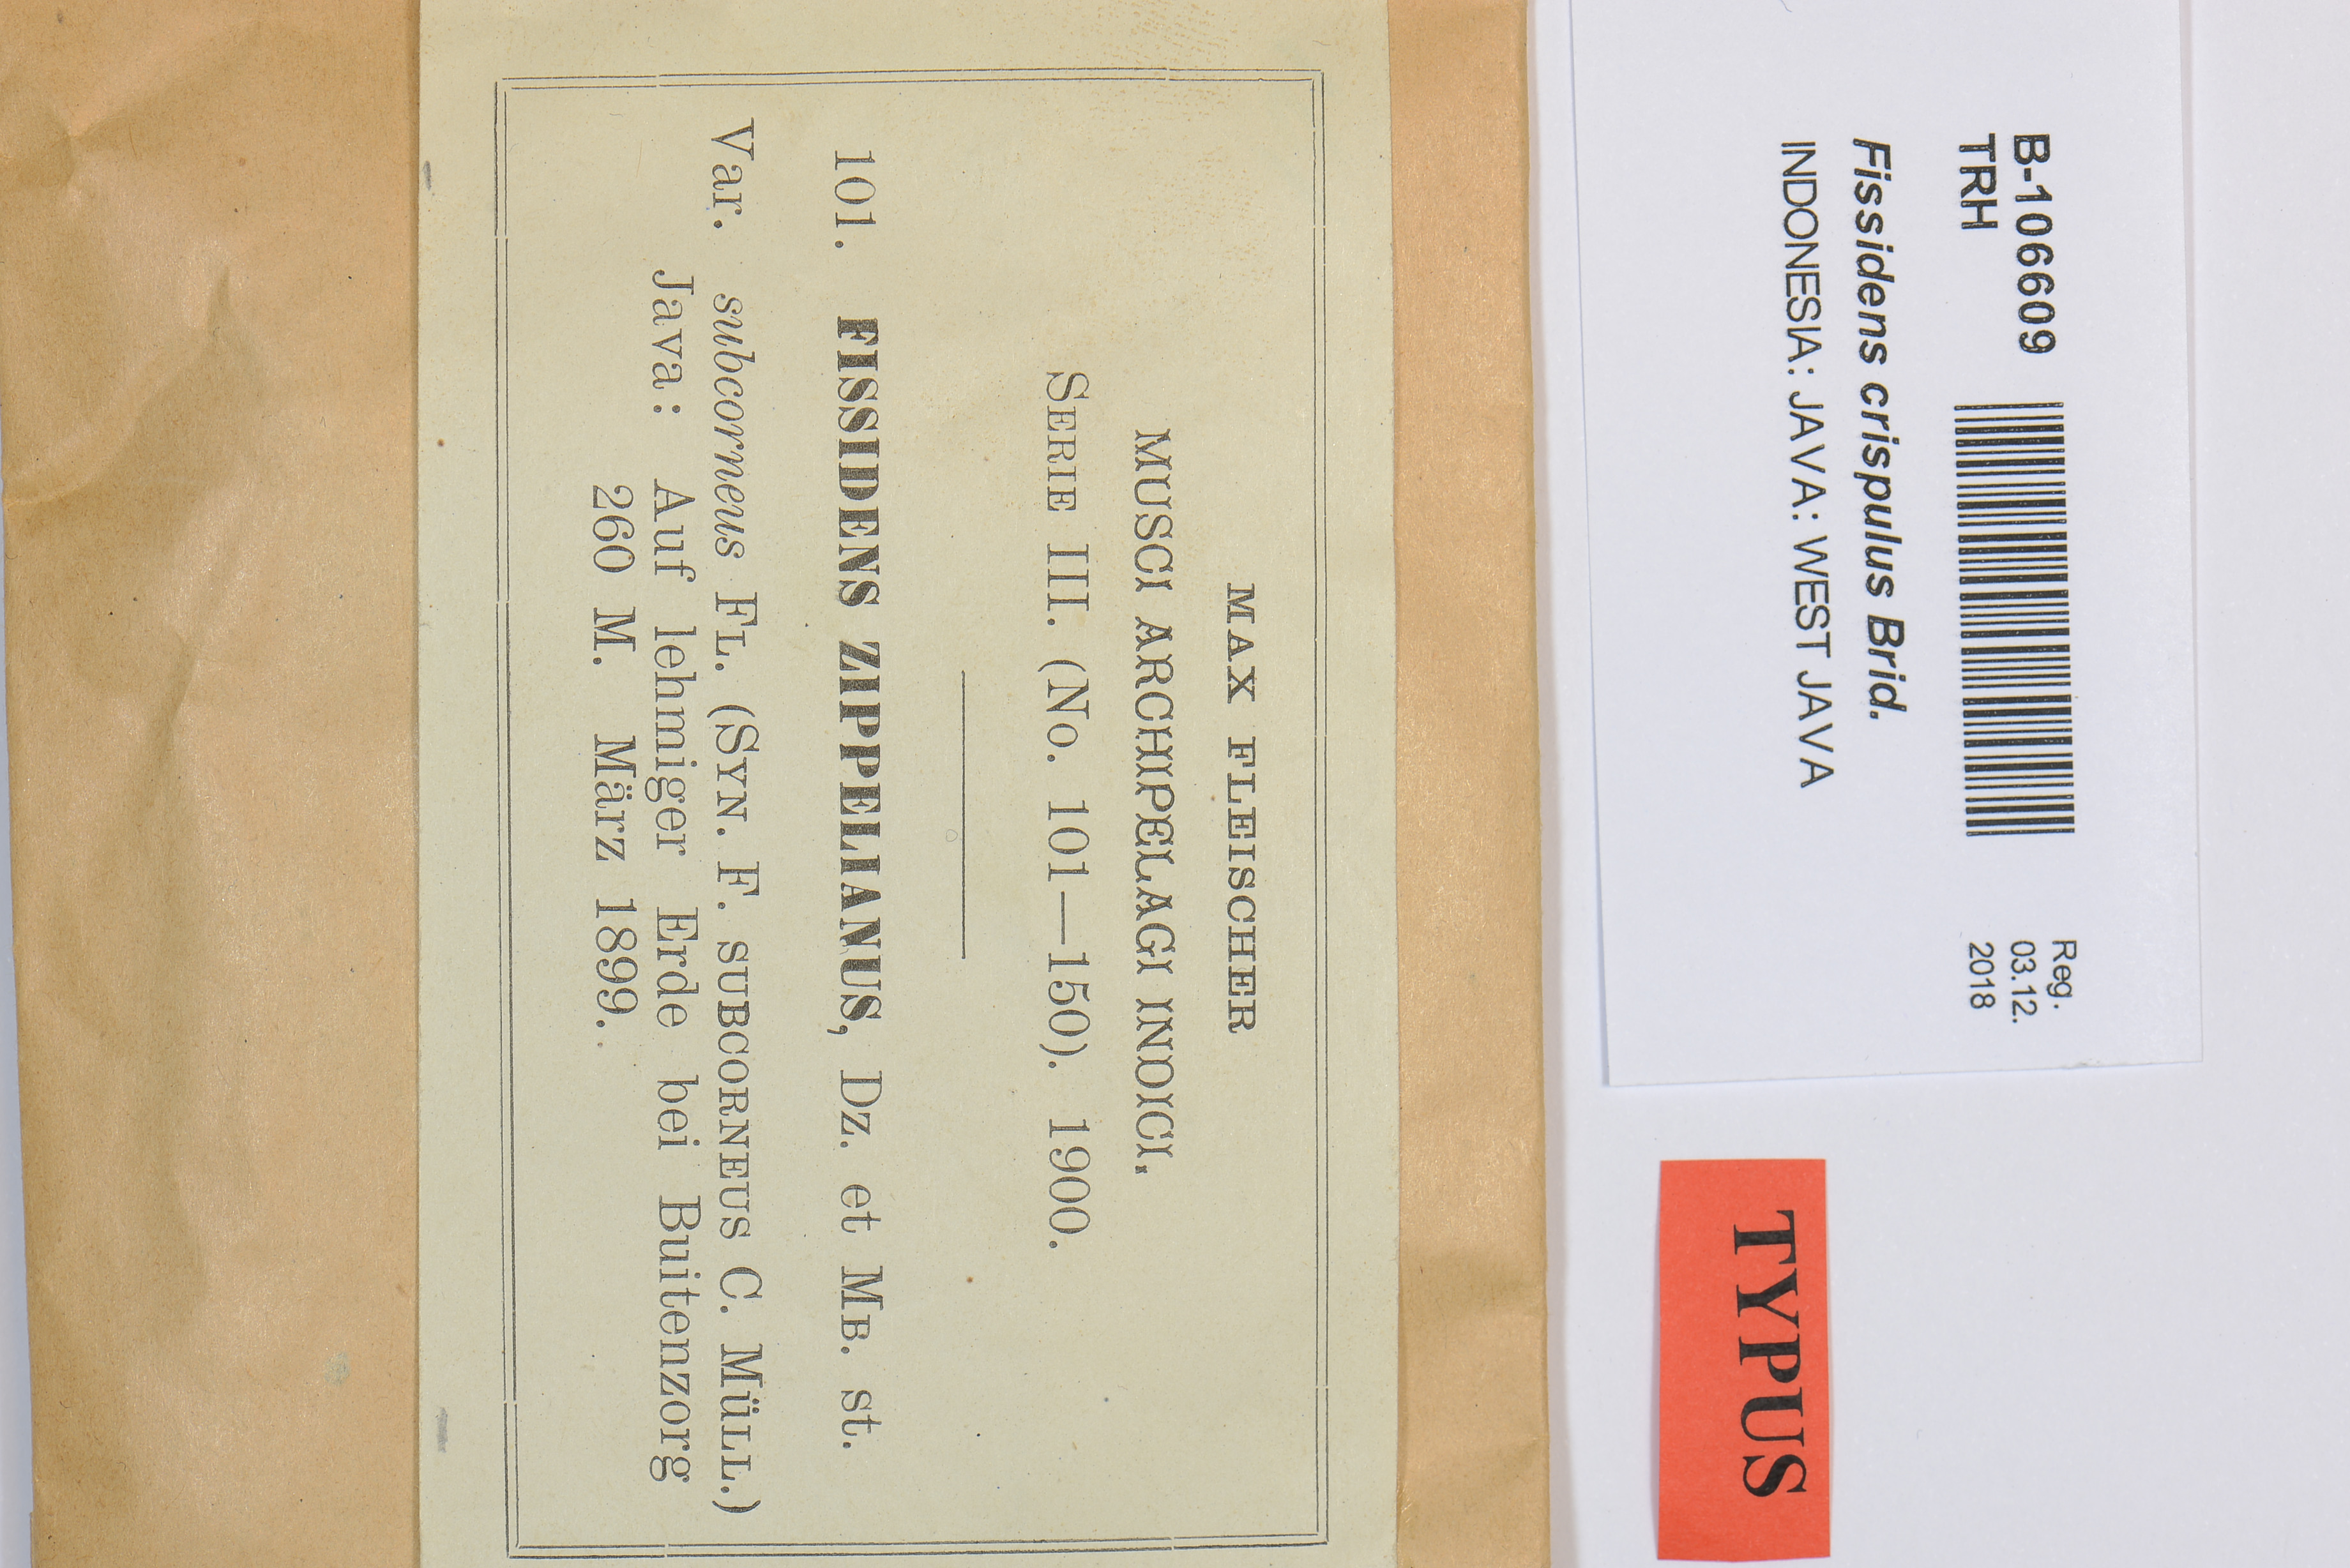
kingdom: Plantae
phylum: Bryophyta
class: Bryopsida
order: Dicranales
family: Fissidentaceae
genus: Fissidens
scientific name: Fissidens crispulus
